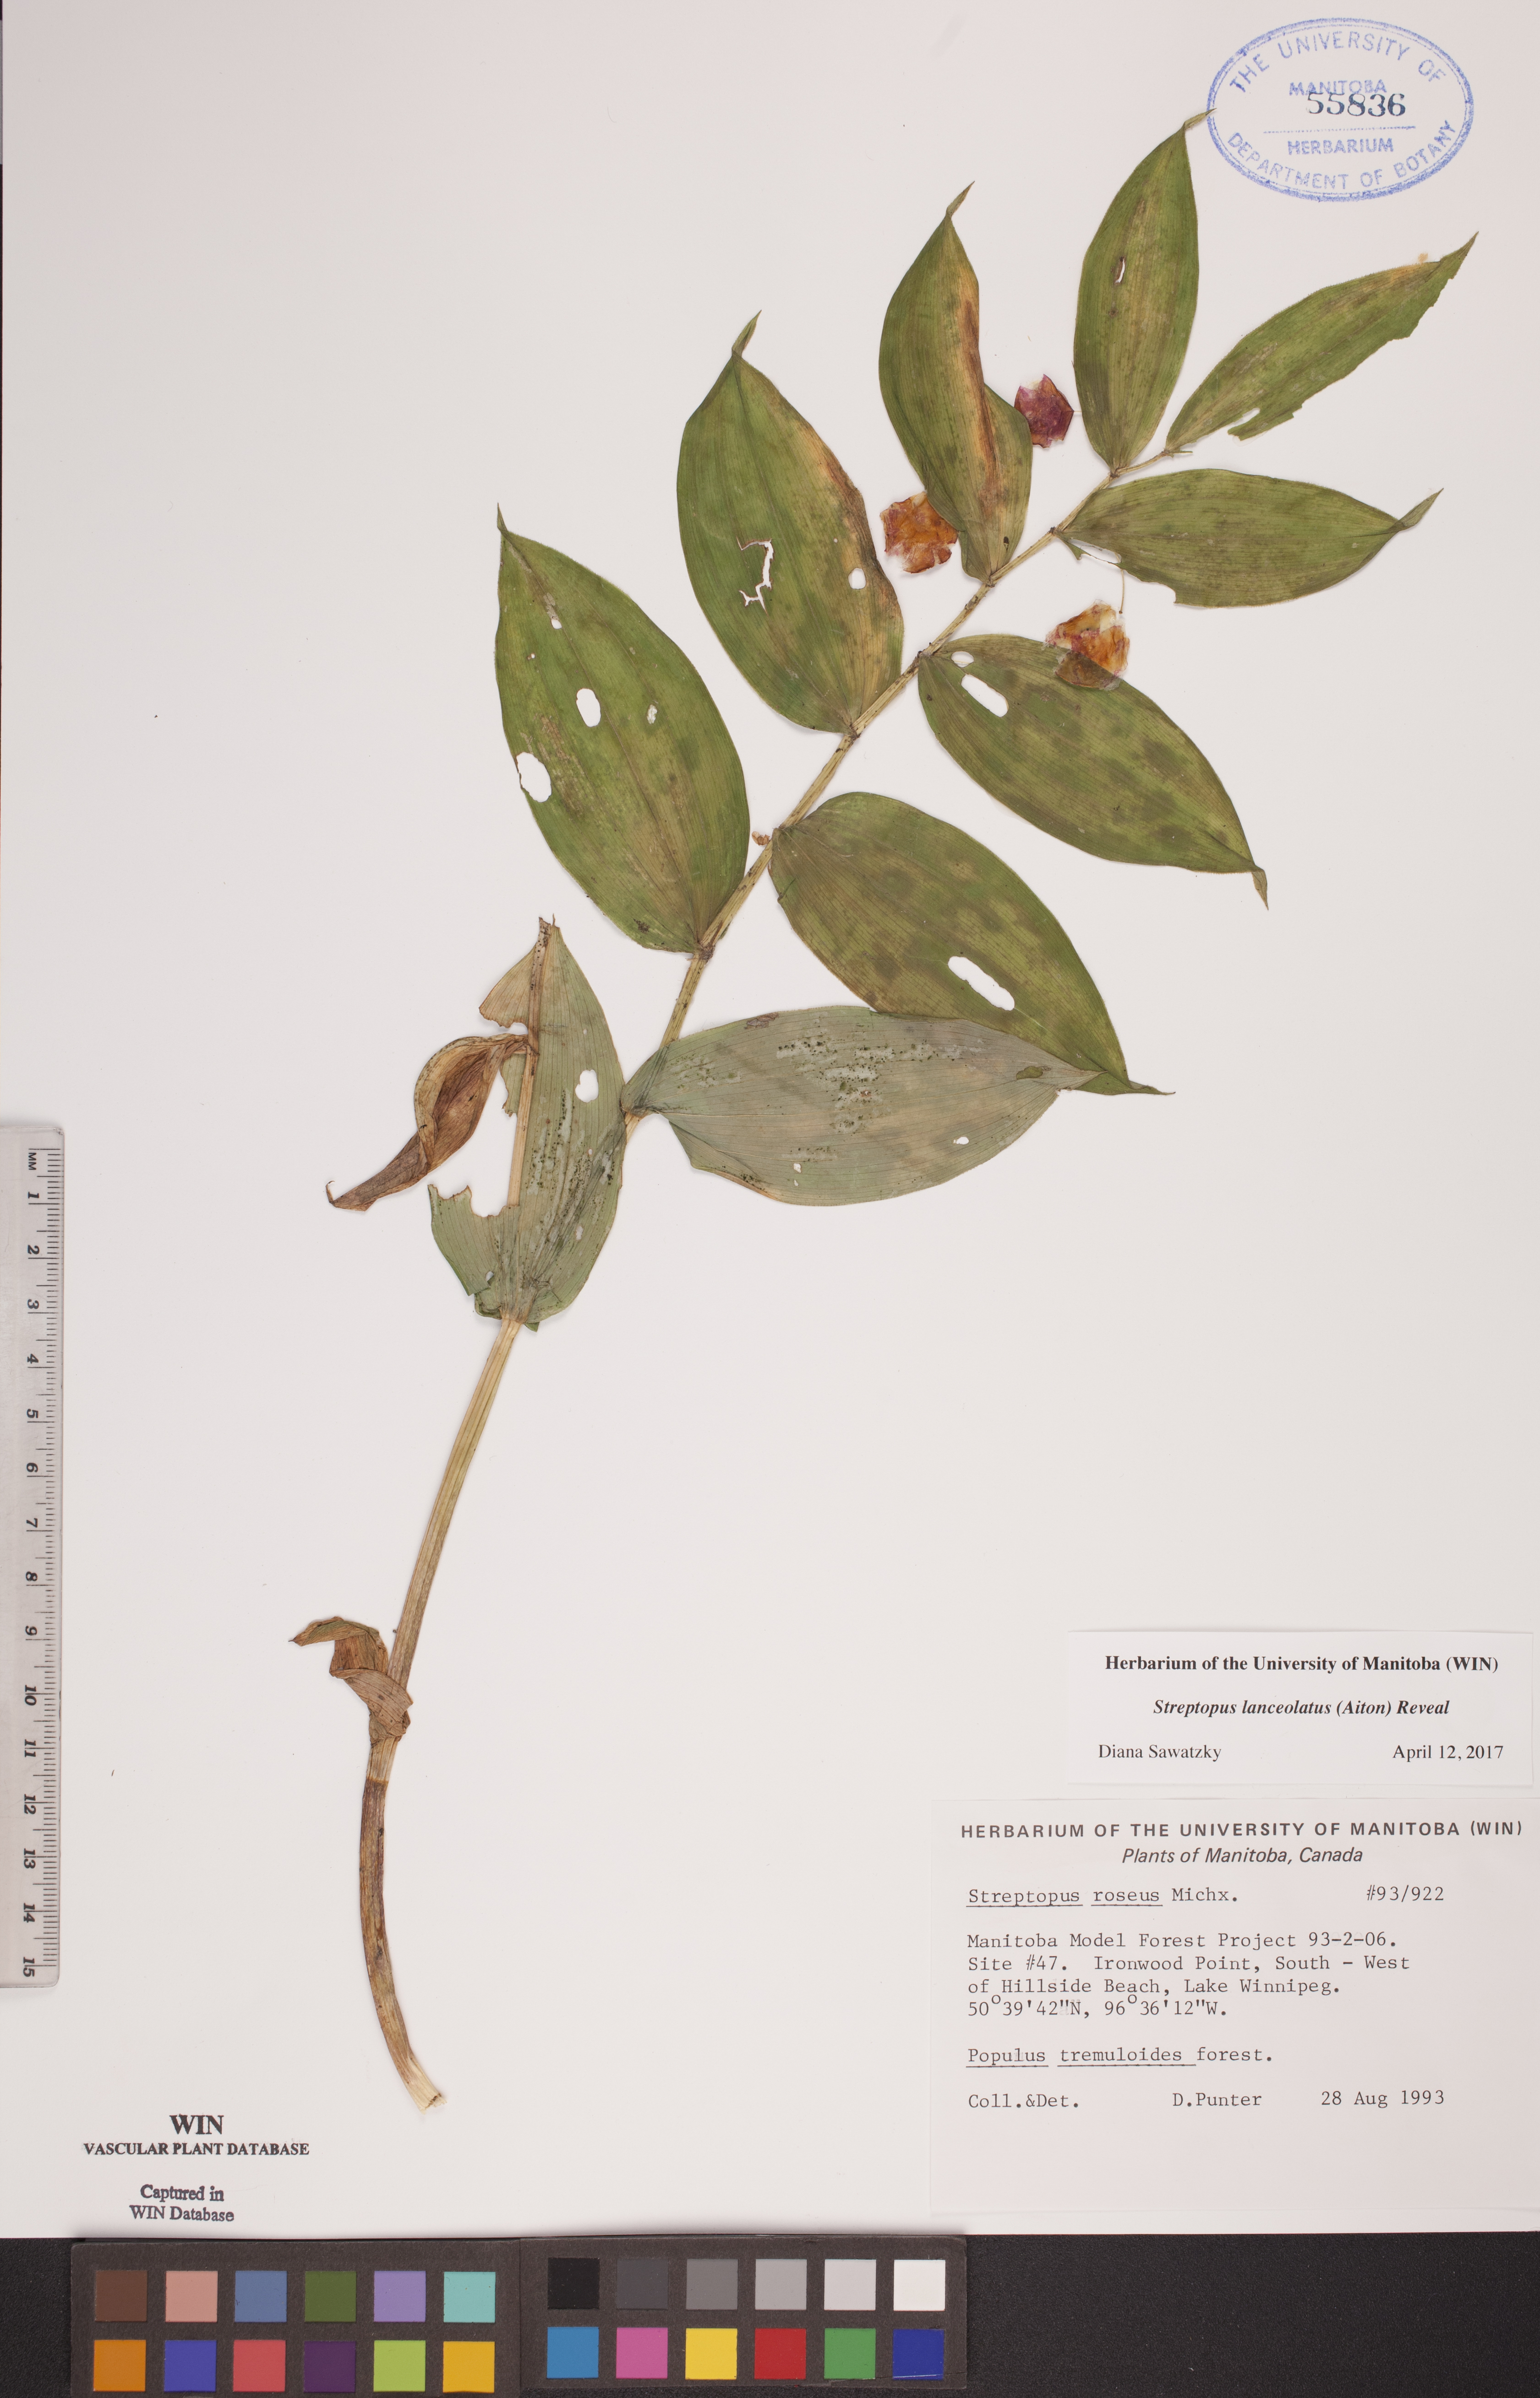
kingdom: Plantae
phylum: Tracheophyta
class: Liliopsida
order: Liliales
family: Liliaceae
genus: Streptopus
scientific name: Streptopus lanceolatus
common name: Rose mandarin
